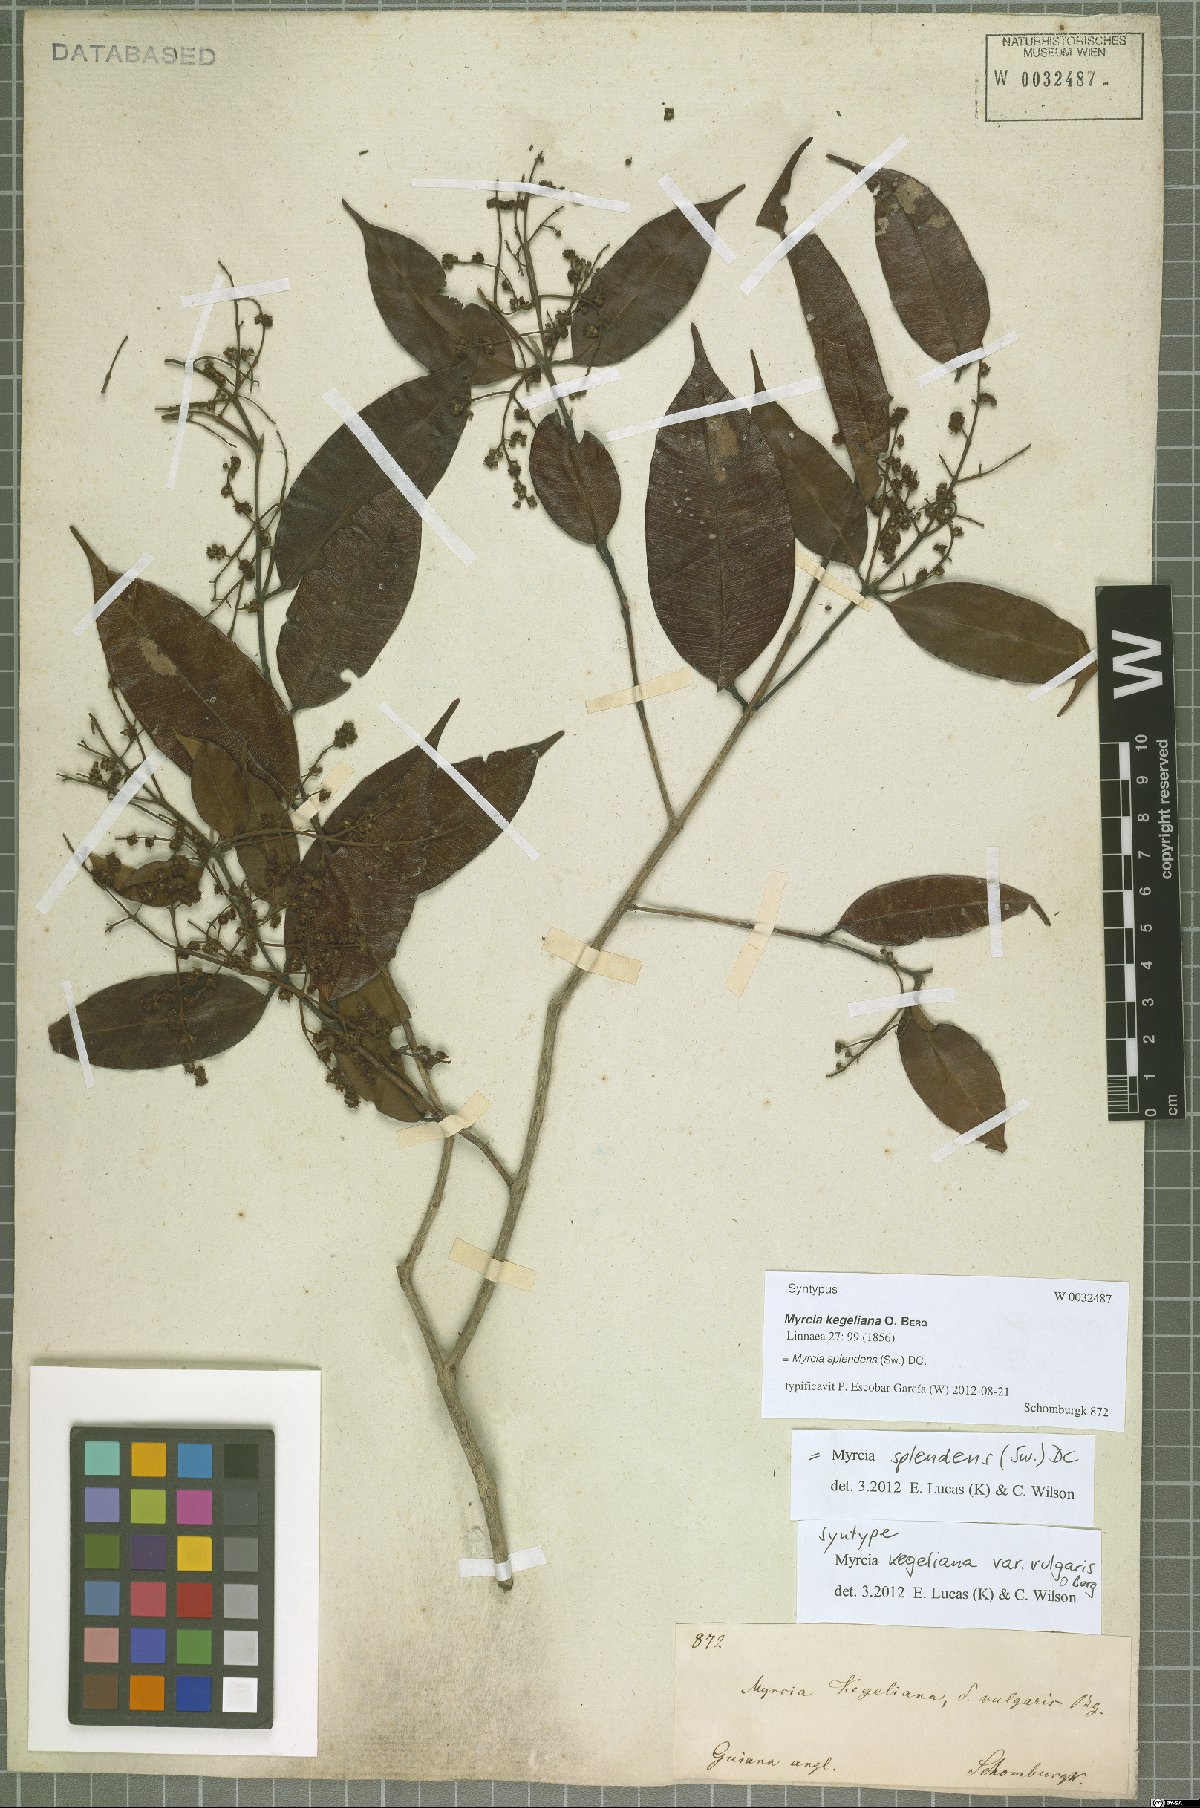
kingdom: Plantae
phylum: Tracheophyta
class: Magnoliopsida
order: Myrtales
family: Myrtaceae
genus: Myrcia
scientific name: Myrcia splendens
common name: Surinam cherry
